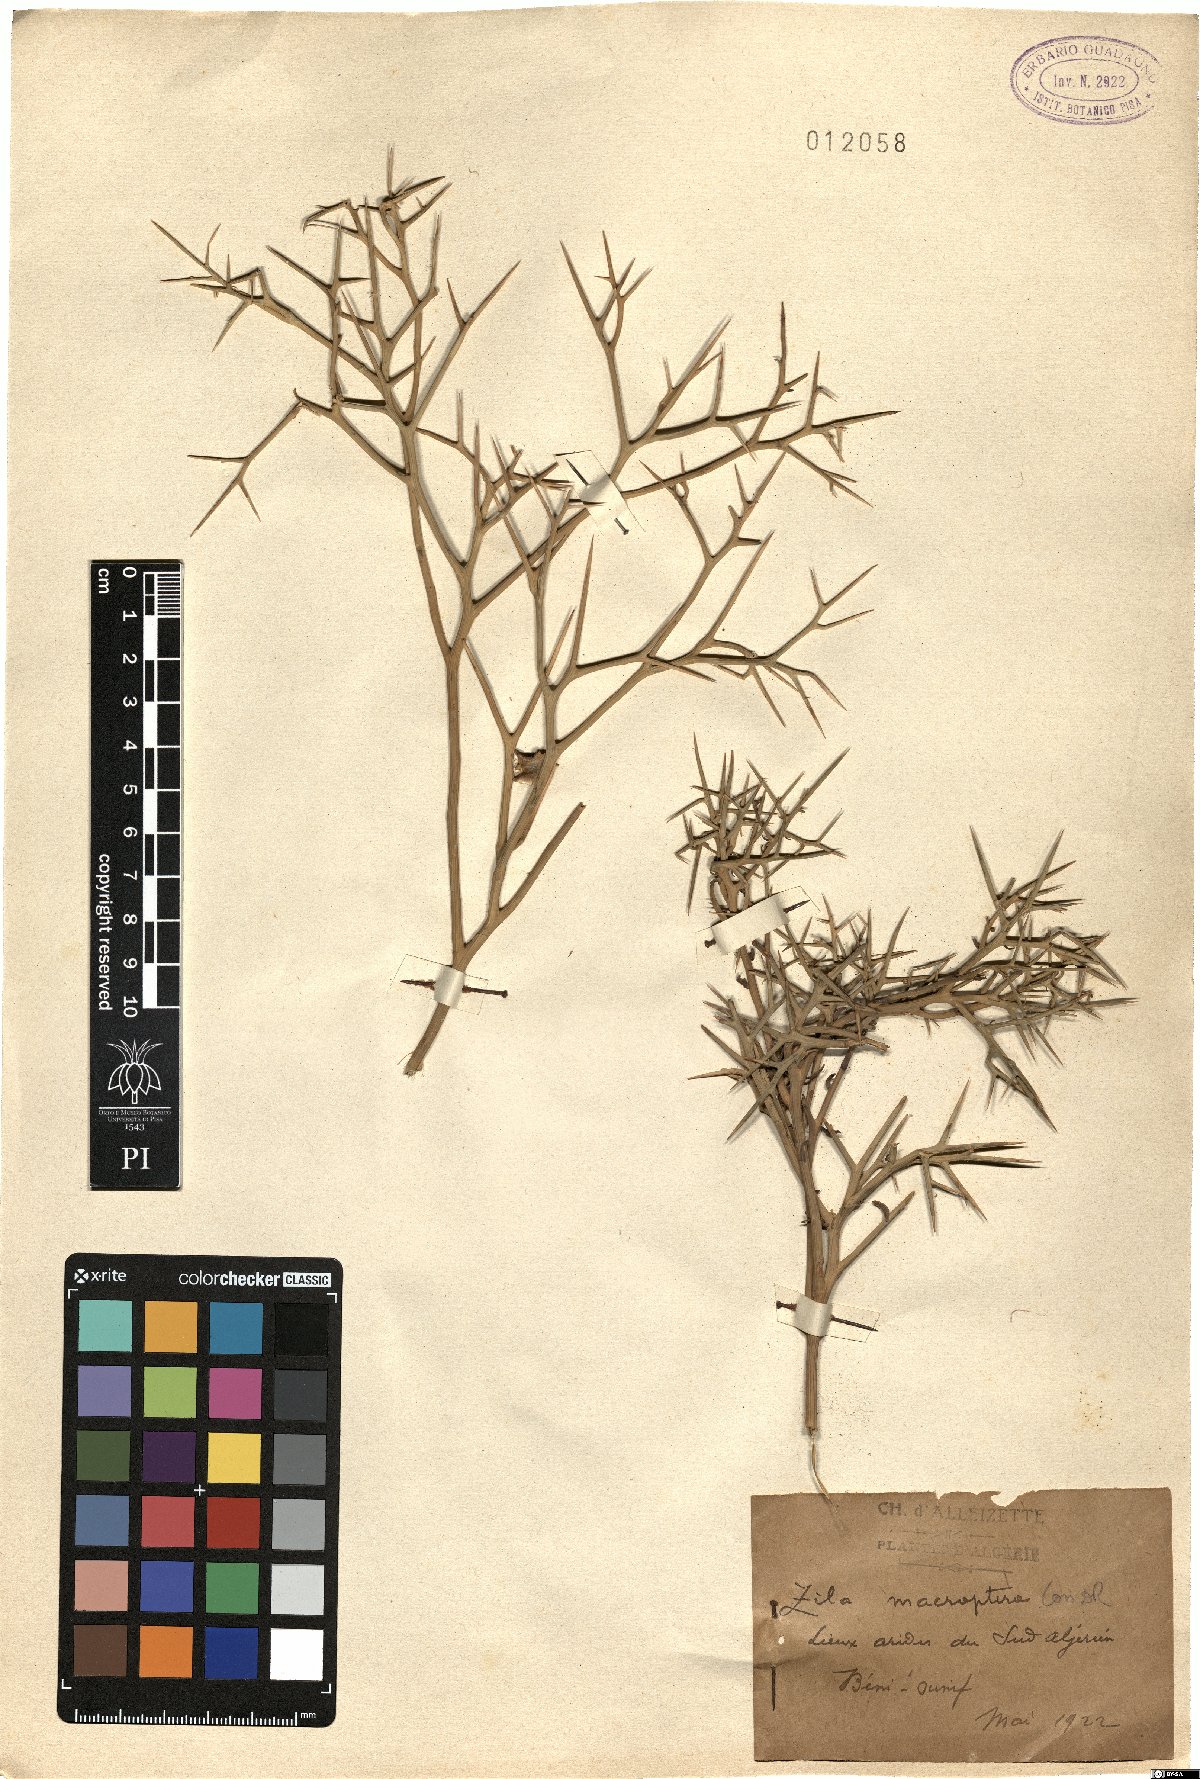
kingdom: Plantae
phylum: Tracheophyta
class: Magnoliopsida
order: Brassicales
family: Brassicaceae
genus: Zilla
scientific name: Zilla macroptera
